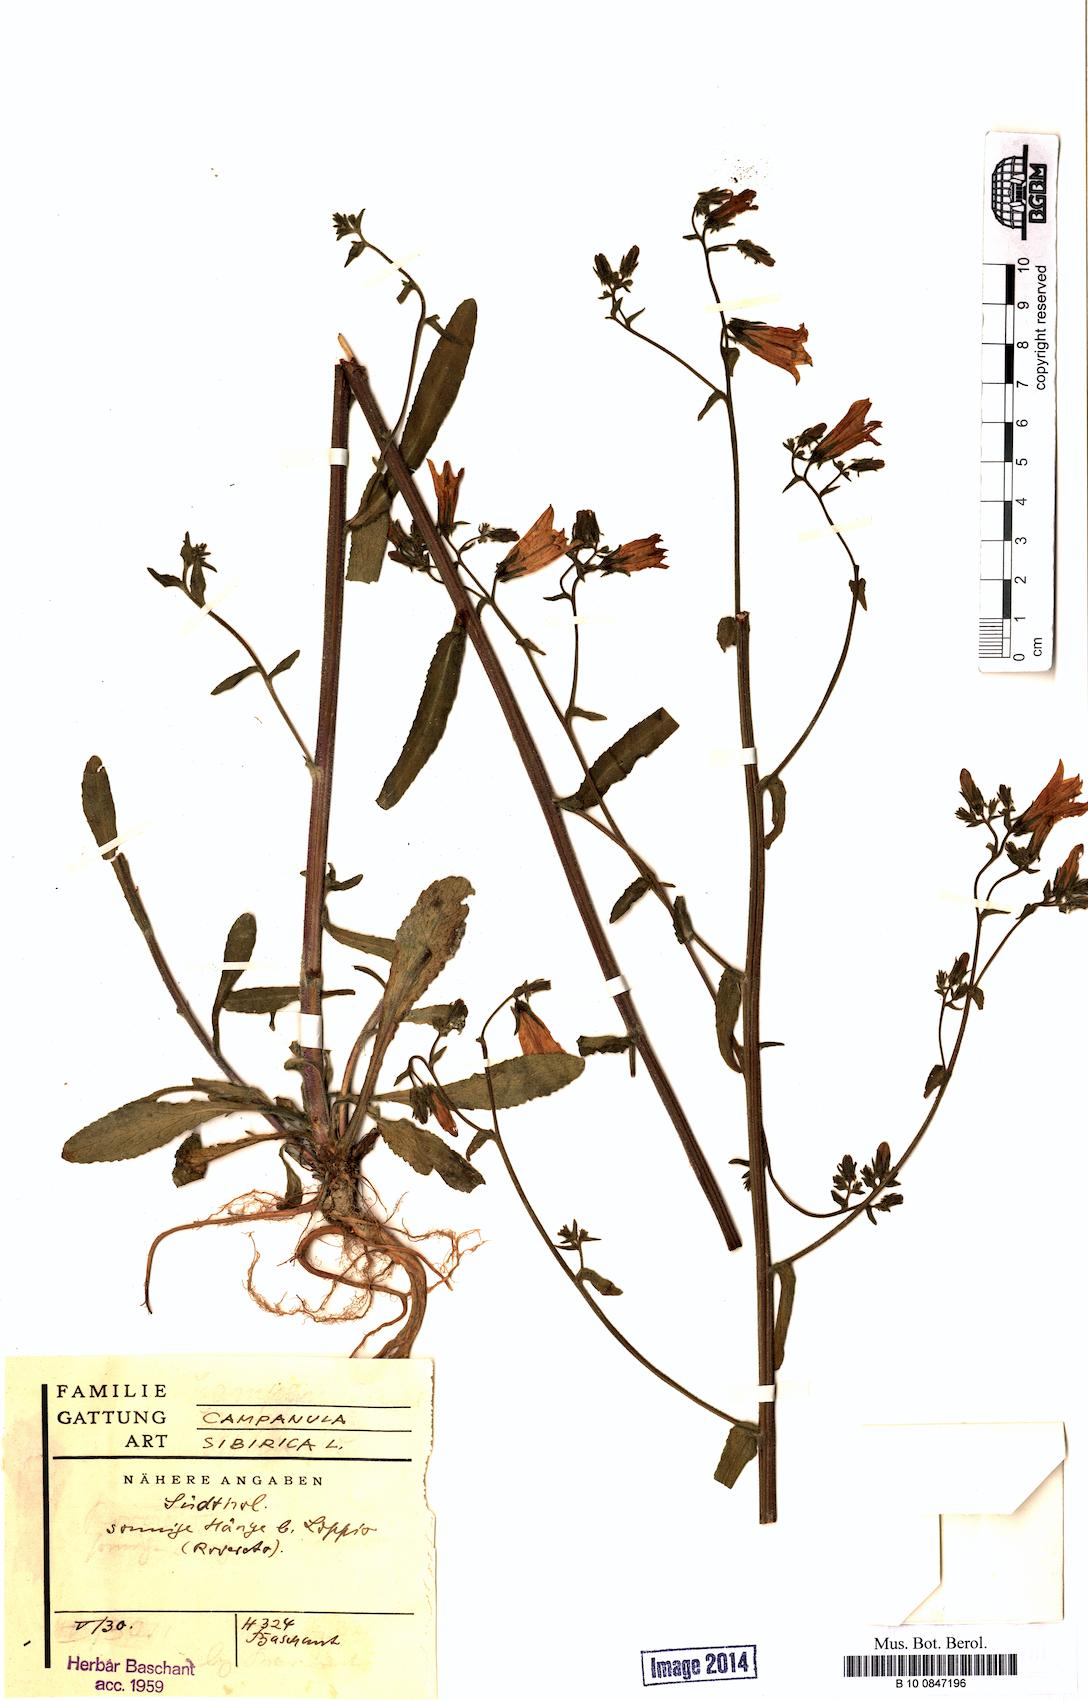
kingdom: Plantae
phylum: Tracheophyta
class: Magnoliopsida
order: Asterales
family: Campanulaceae
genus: Campanula
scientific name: Campanula sibirica
